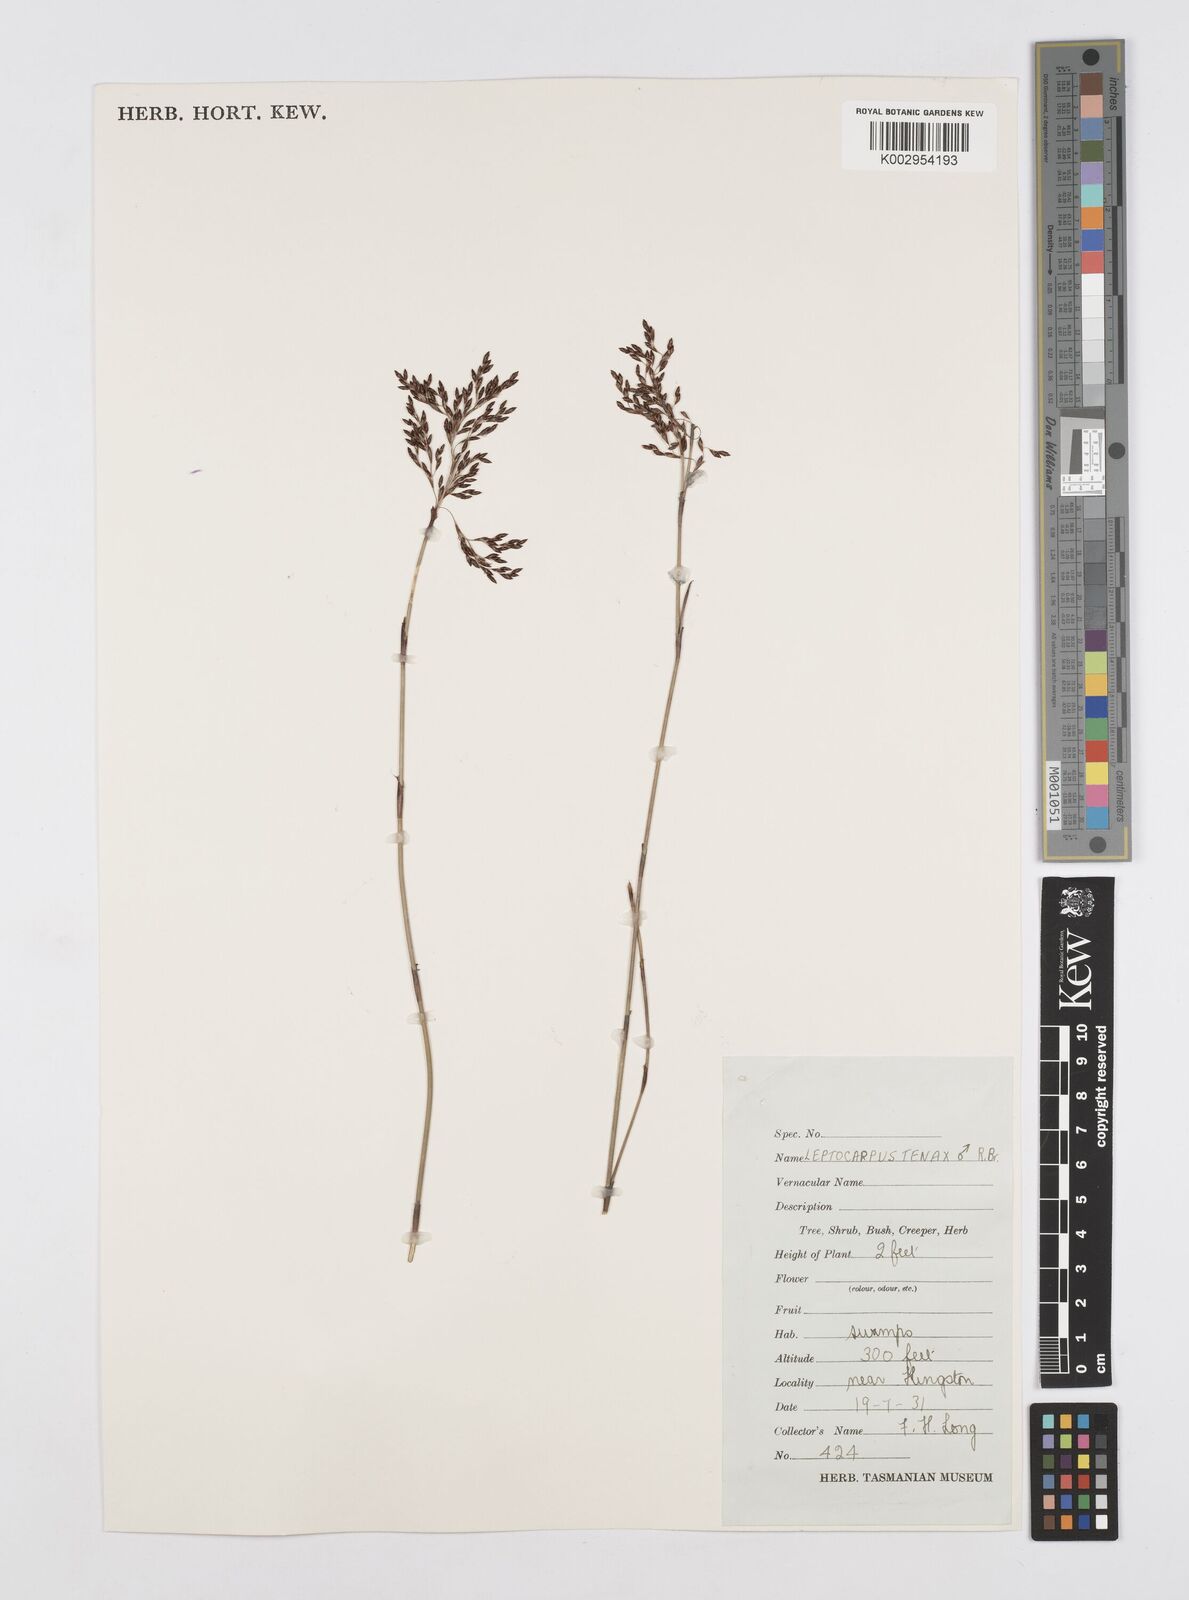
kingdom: Plantae
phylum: Tracheophyta
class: Liliopsida
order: Poales
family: Restionaceae
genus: Leptocarpus
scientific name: Leptocarpus tenax
